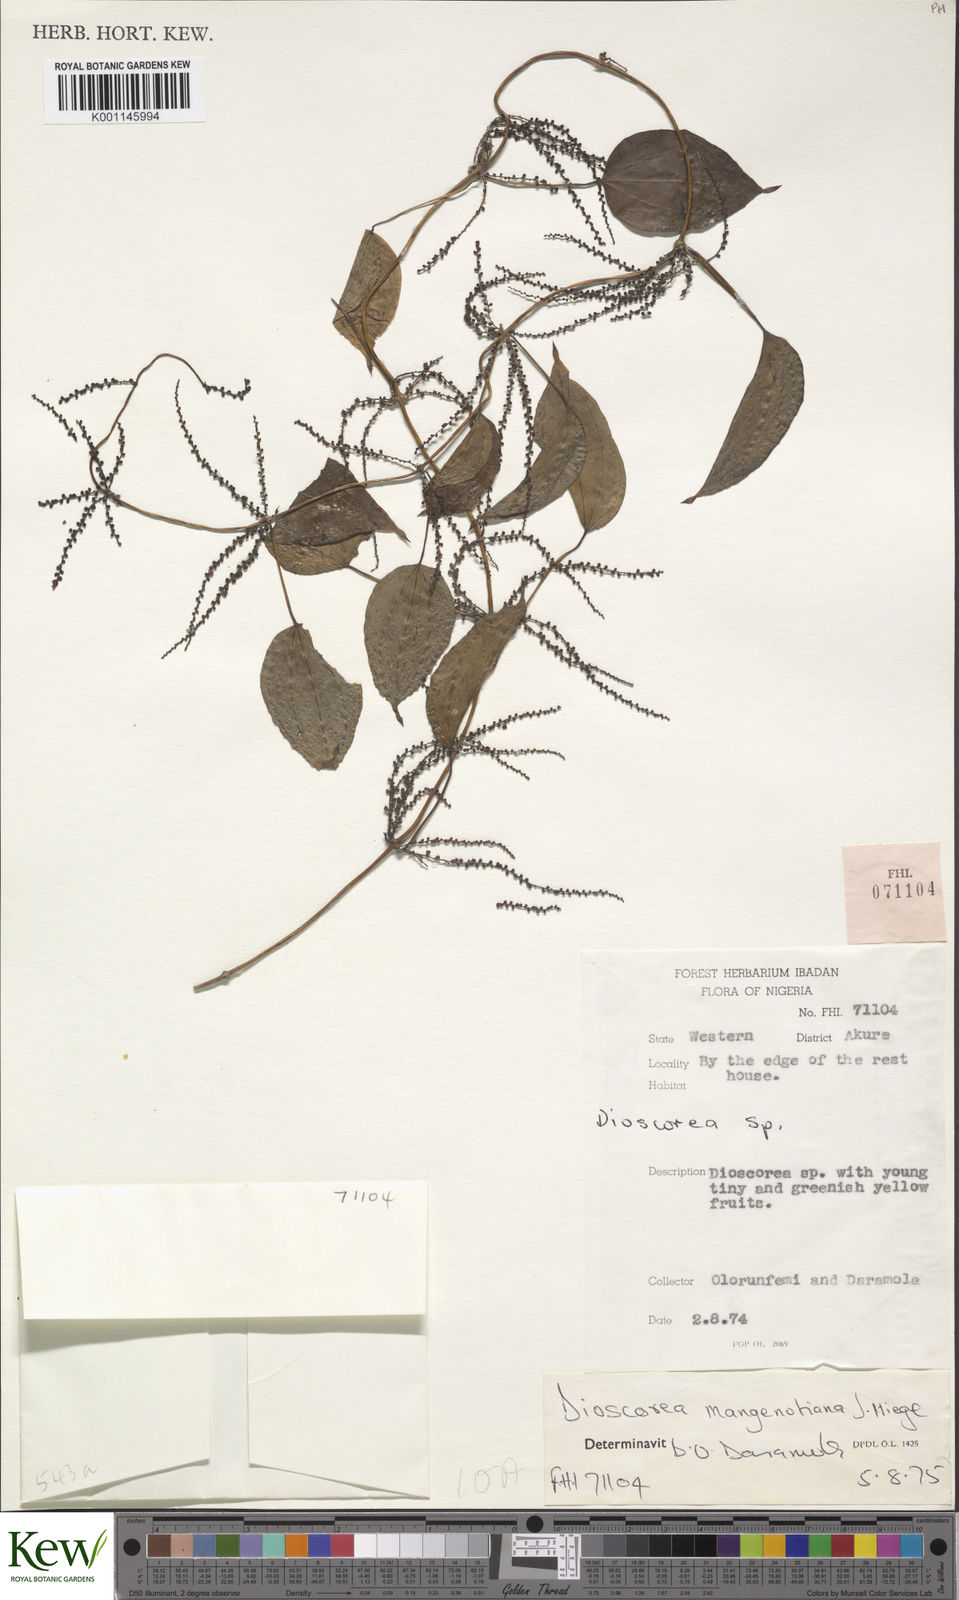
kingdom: Plantae
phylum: Tracheophyta
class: Liliopsida
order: Dioscoreales
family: Dioscoreaceae
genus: Dioscorea
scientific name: Dioscorea
